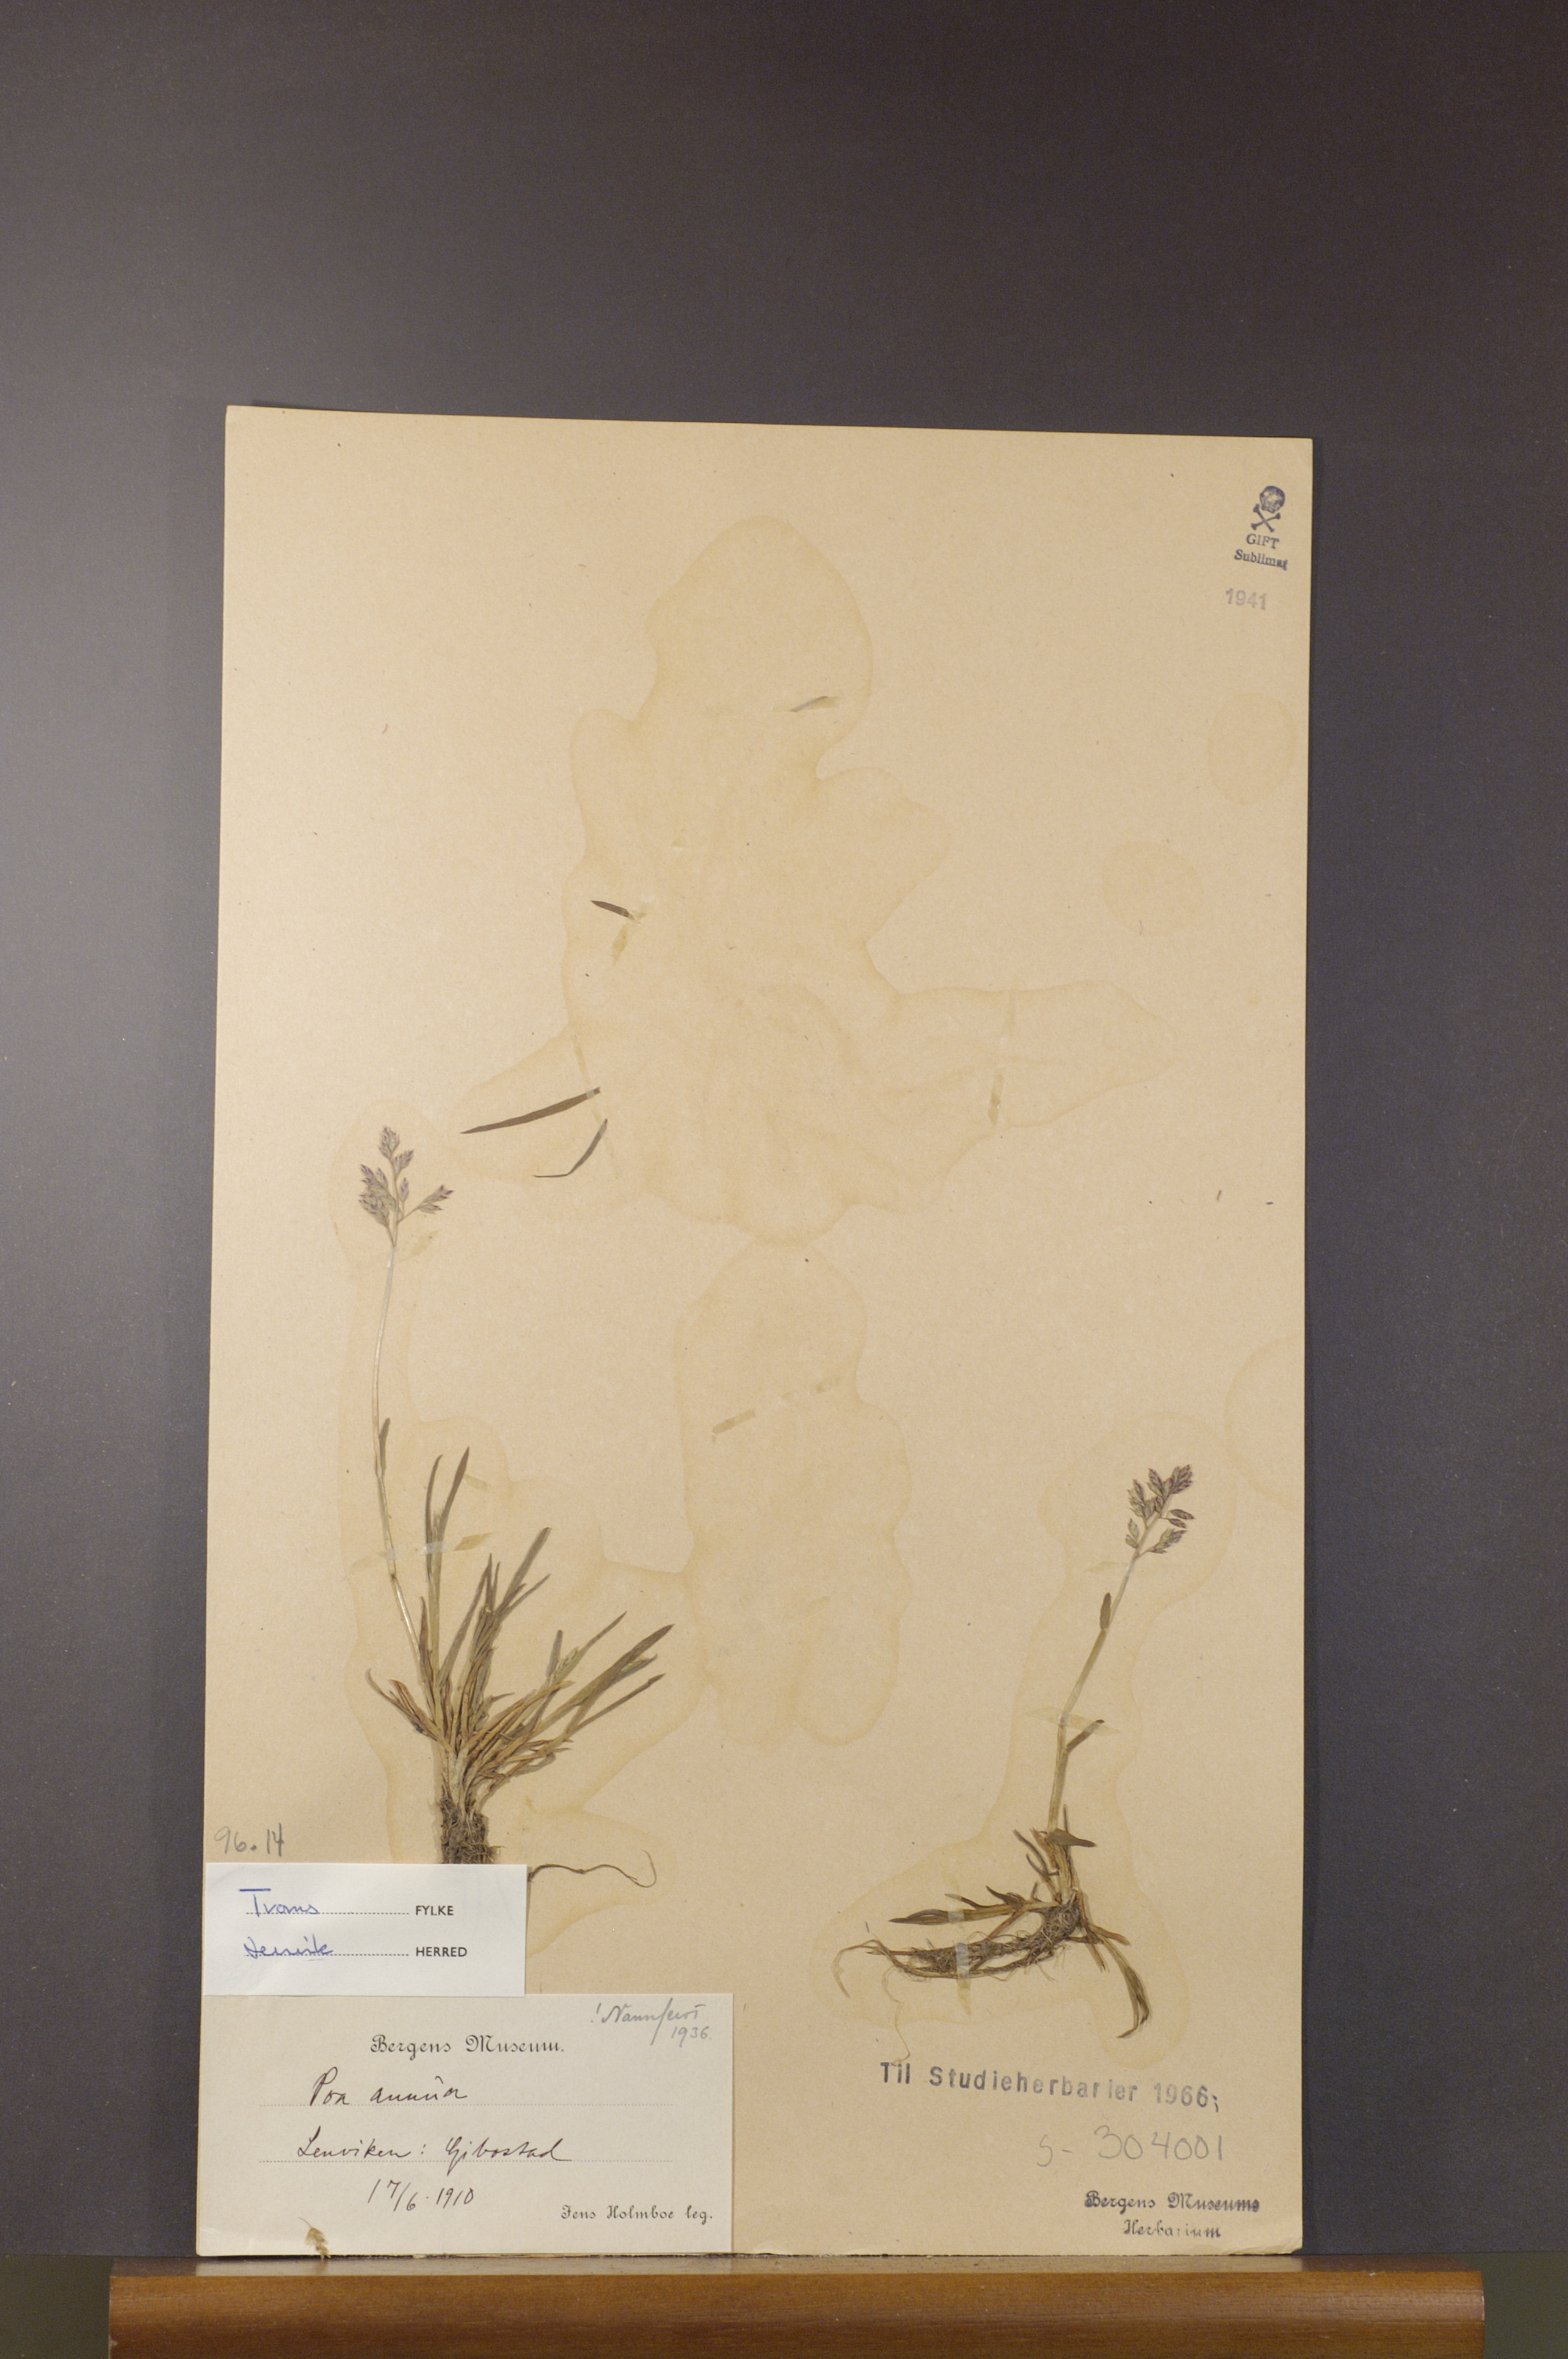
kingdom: Plantae
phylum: Tracheophyta
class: Liliopsida
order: Poales
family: Poaceae
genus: Poa
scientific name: Poa annua
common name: Annual bluegrass
